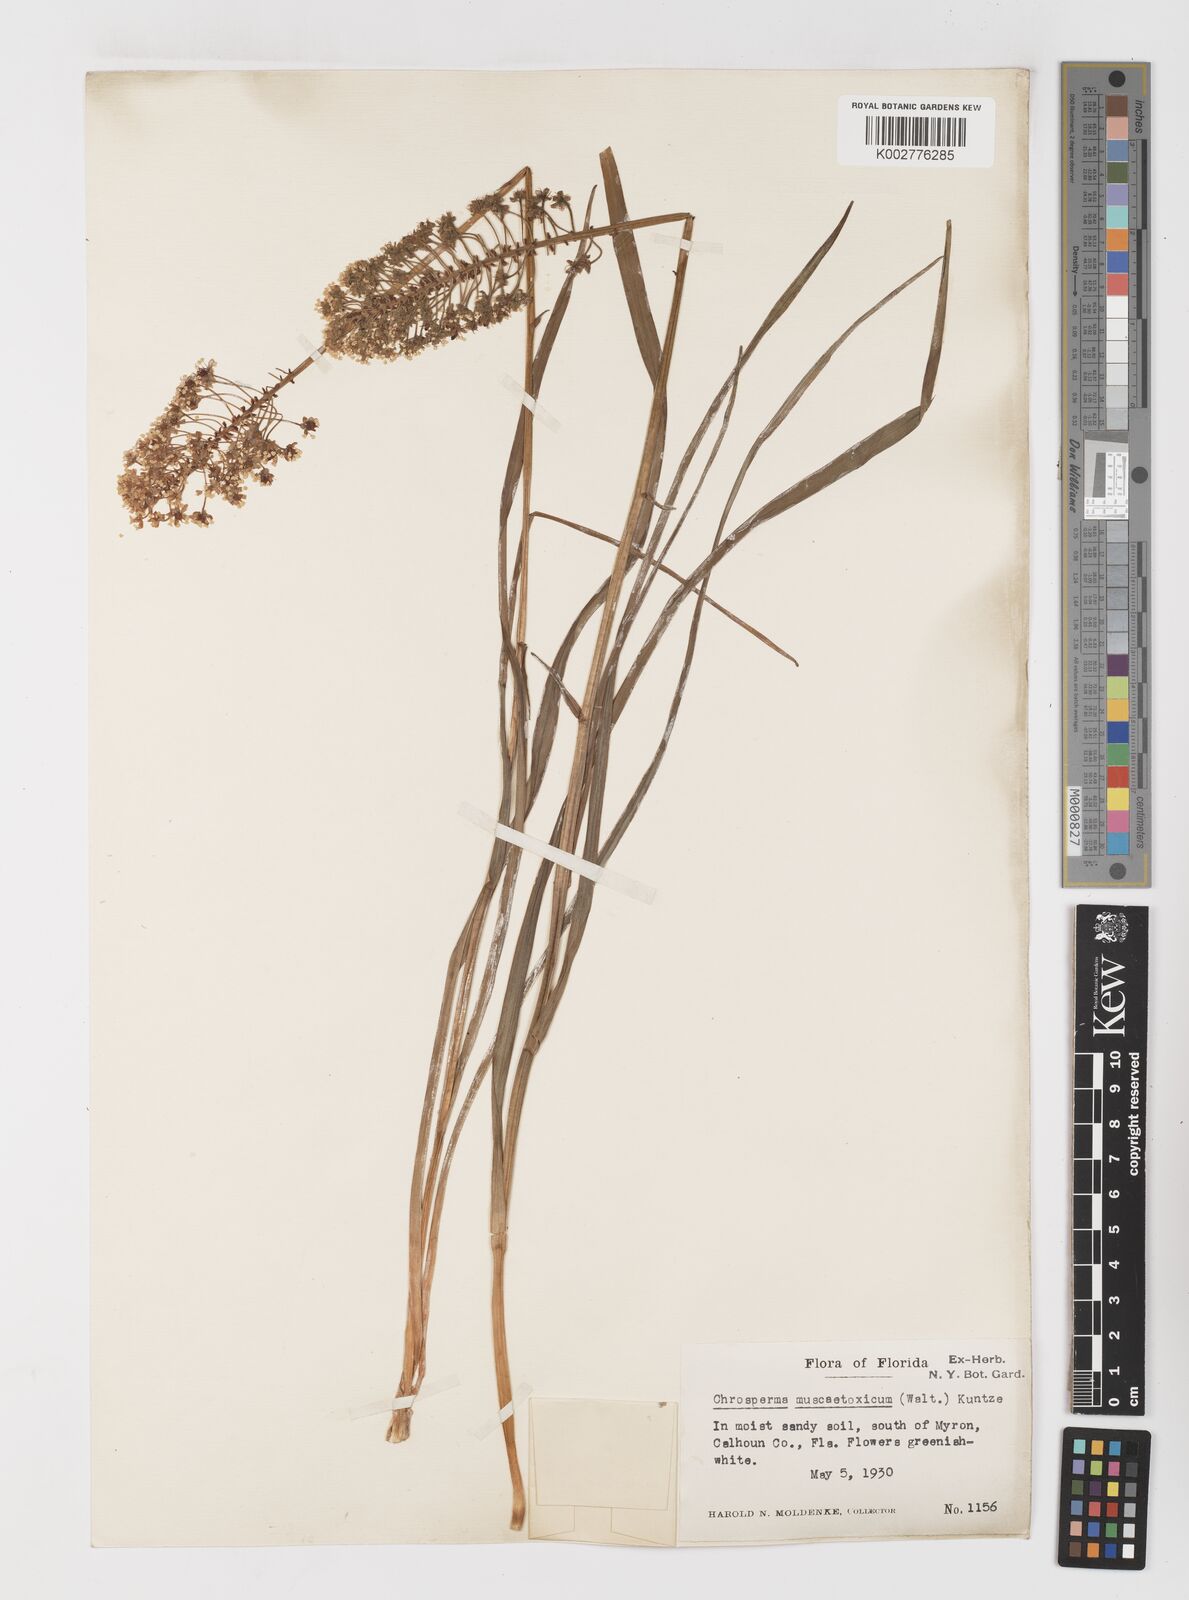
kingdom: Plantae
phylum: Tracheophyta
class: Liliopsida
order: Liliales
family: Melanthiaceae
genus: Amianthium
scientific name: Amianthium muscitoxicum
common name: Fly-poison
